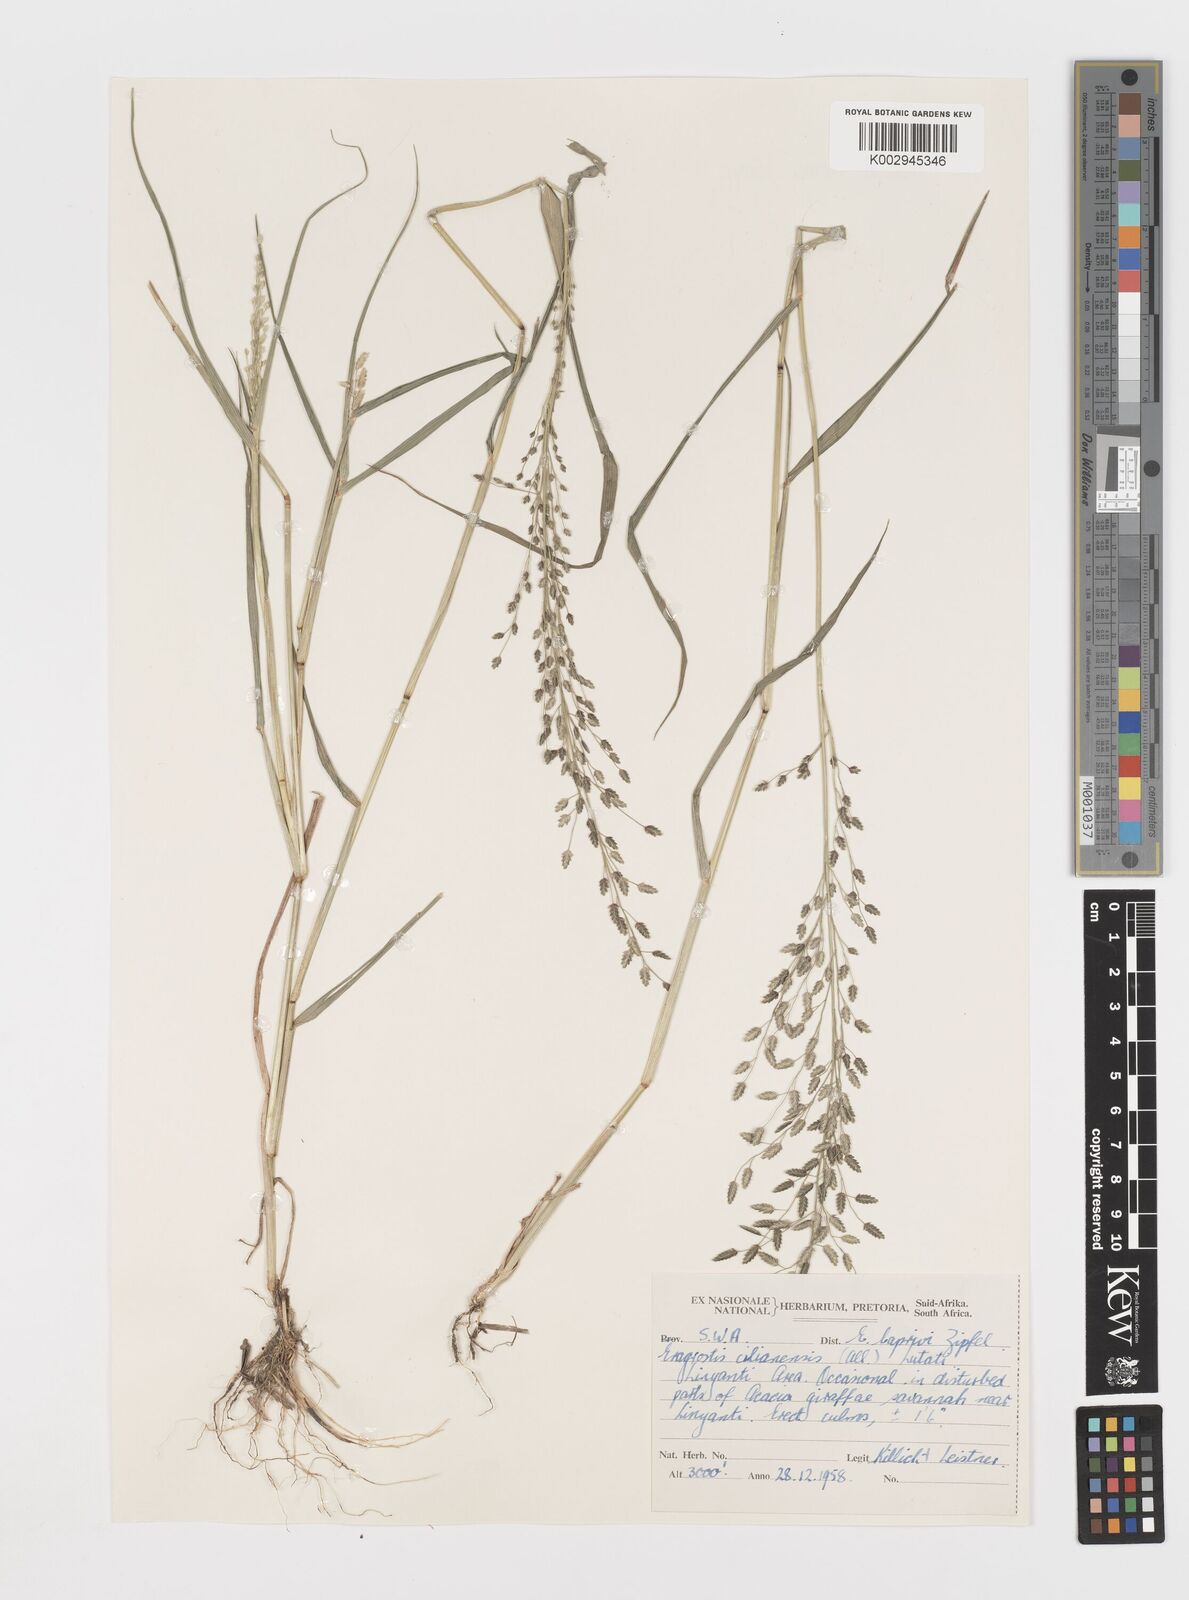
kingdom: Plantae
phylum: Tracheophyta
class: Liliopsida
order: Poales
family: Poaceae
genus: Eragrostis
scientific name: Eragrostis cilianensis
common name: Stinkgrass
